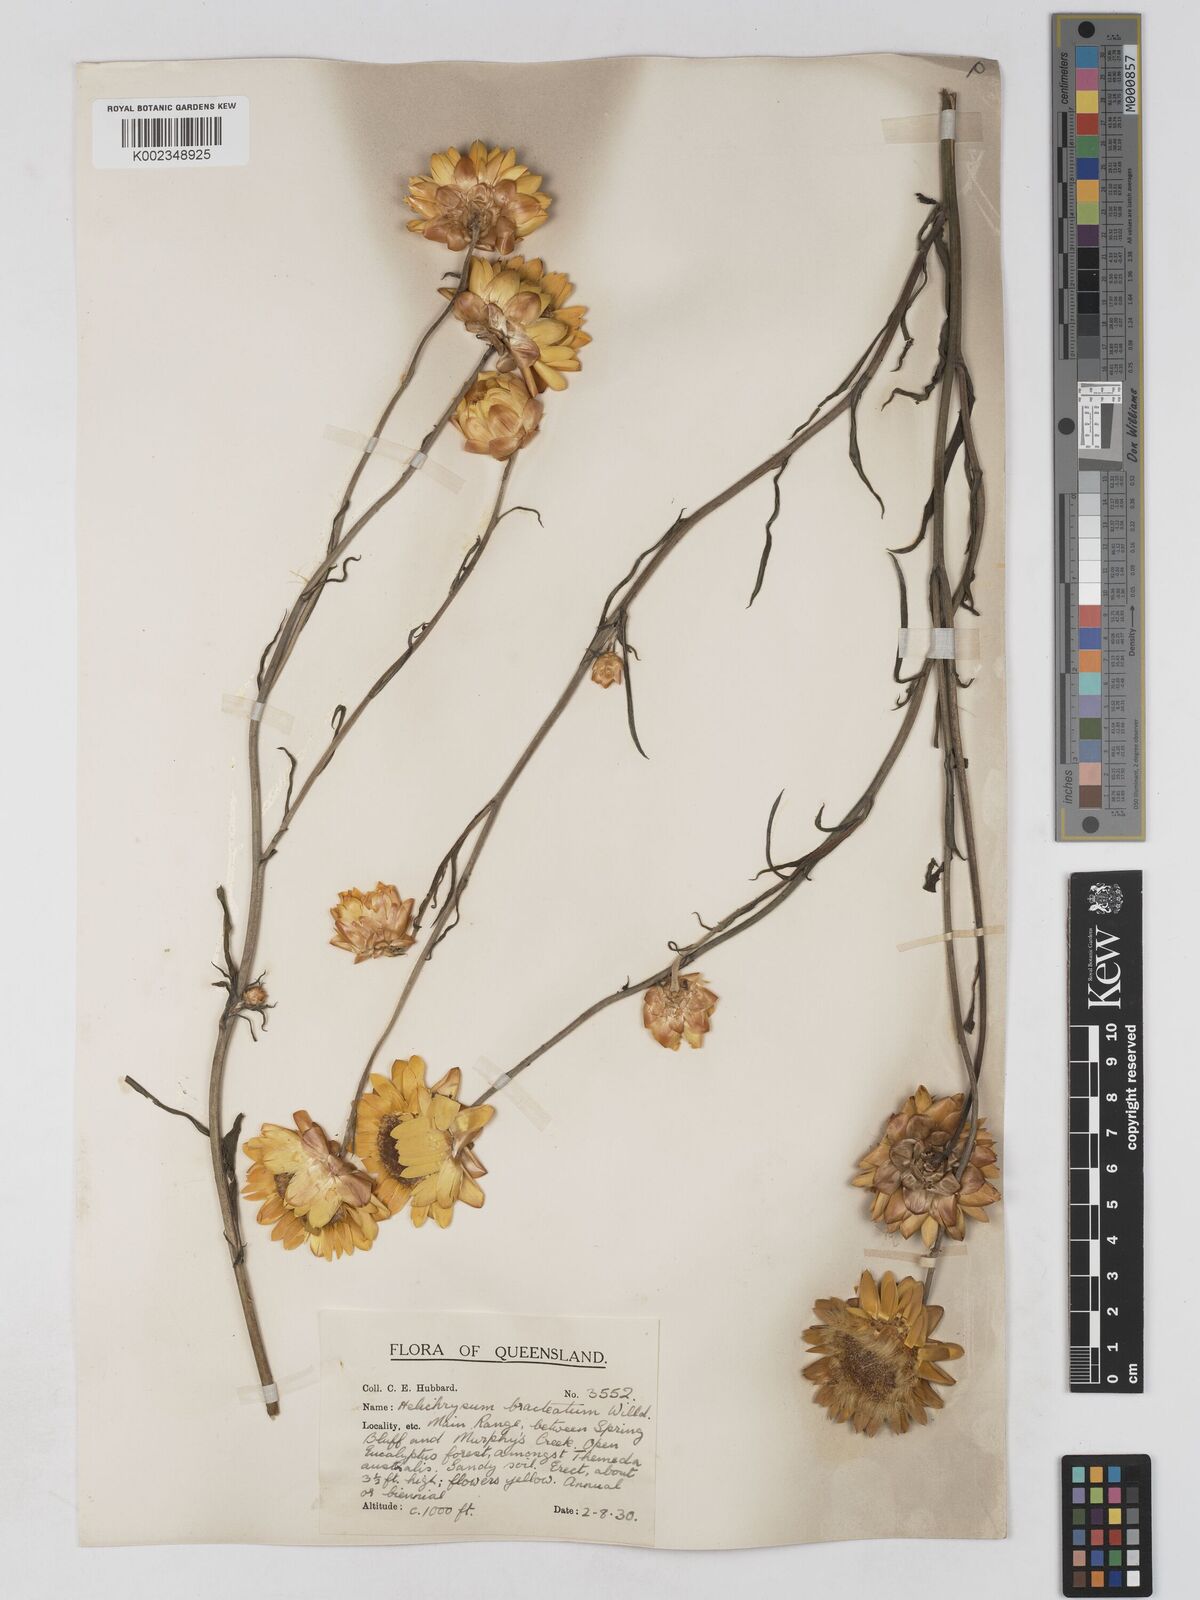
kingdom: Plantae
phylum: Tracheophyta
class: Magnoliopsida
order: Asterales
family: Asteraceae
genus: Xerochrysum
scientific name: Xerochrysum bracteatum
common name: Bracted strawflower
